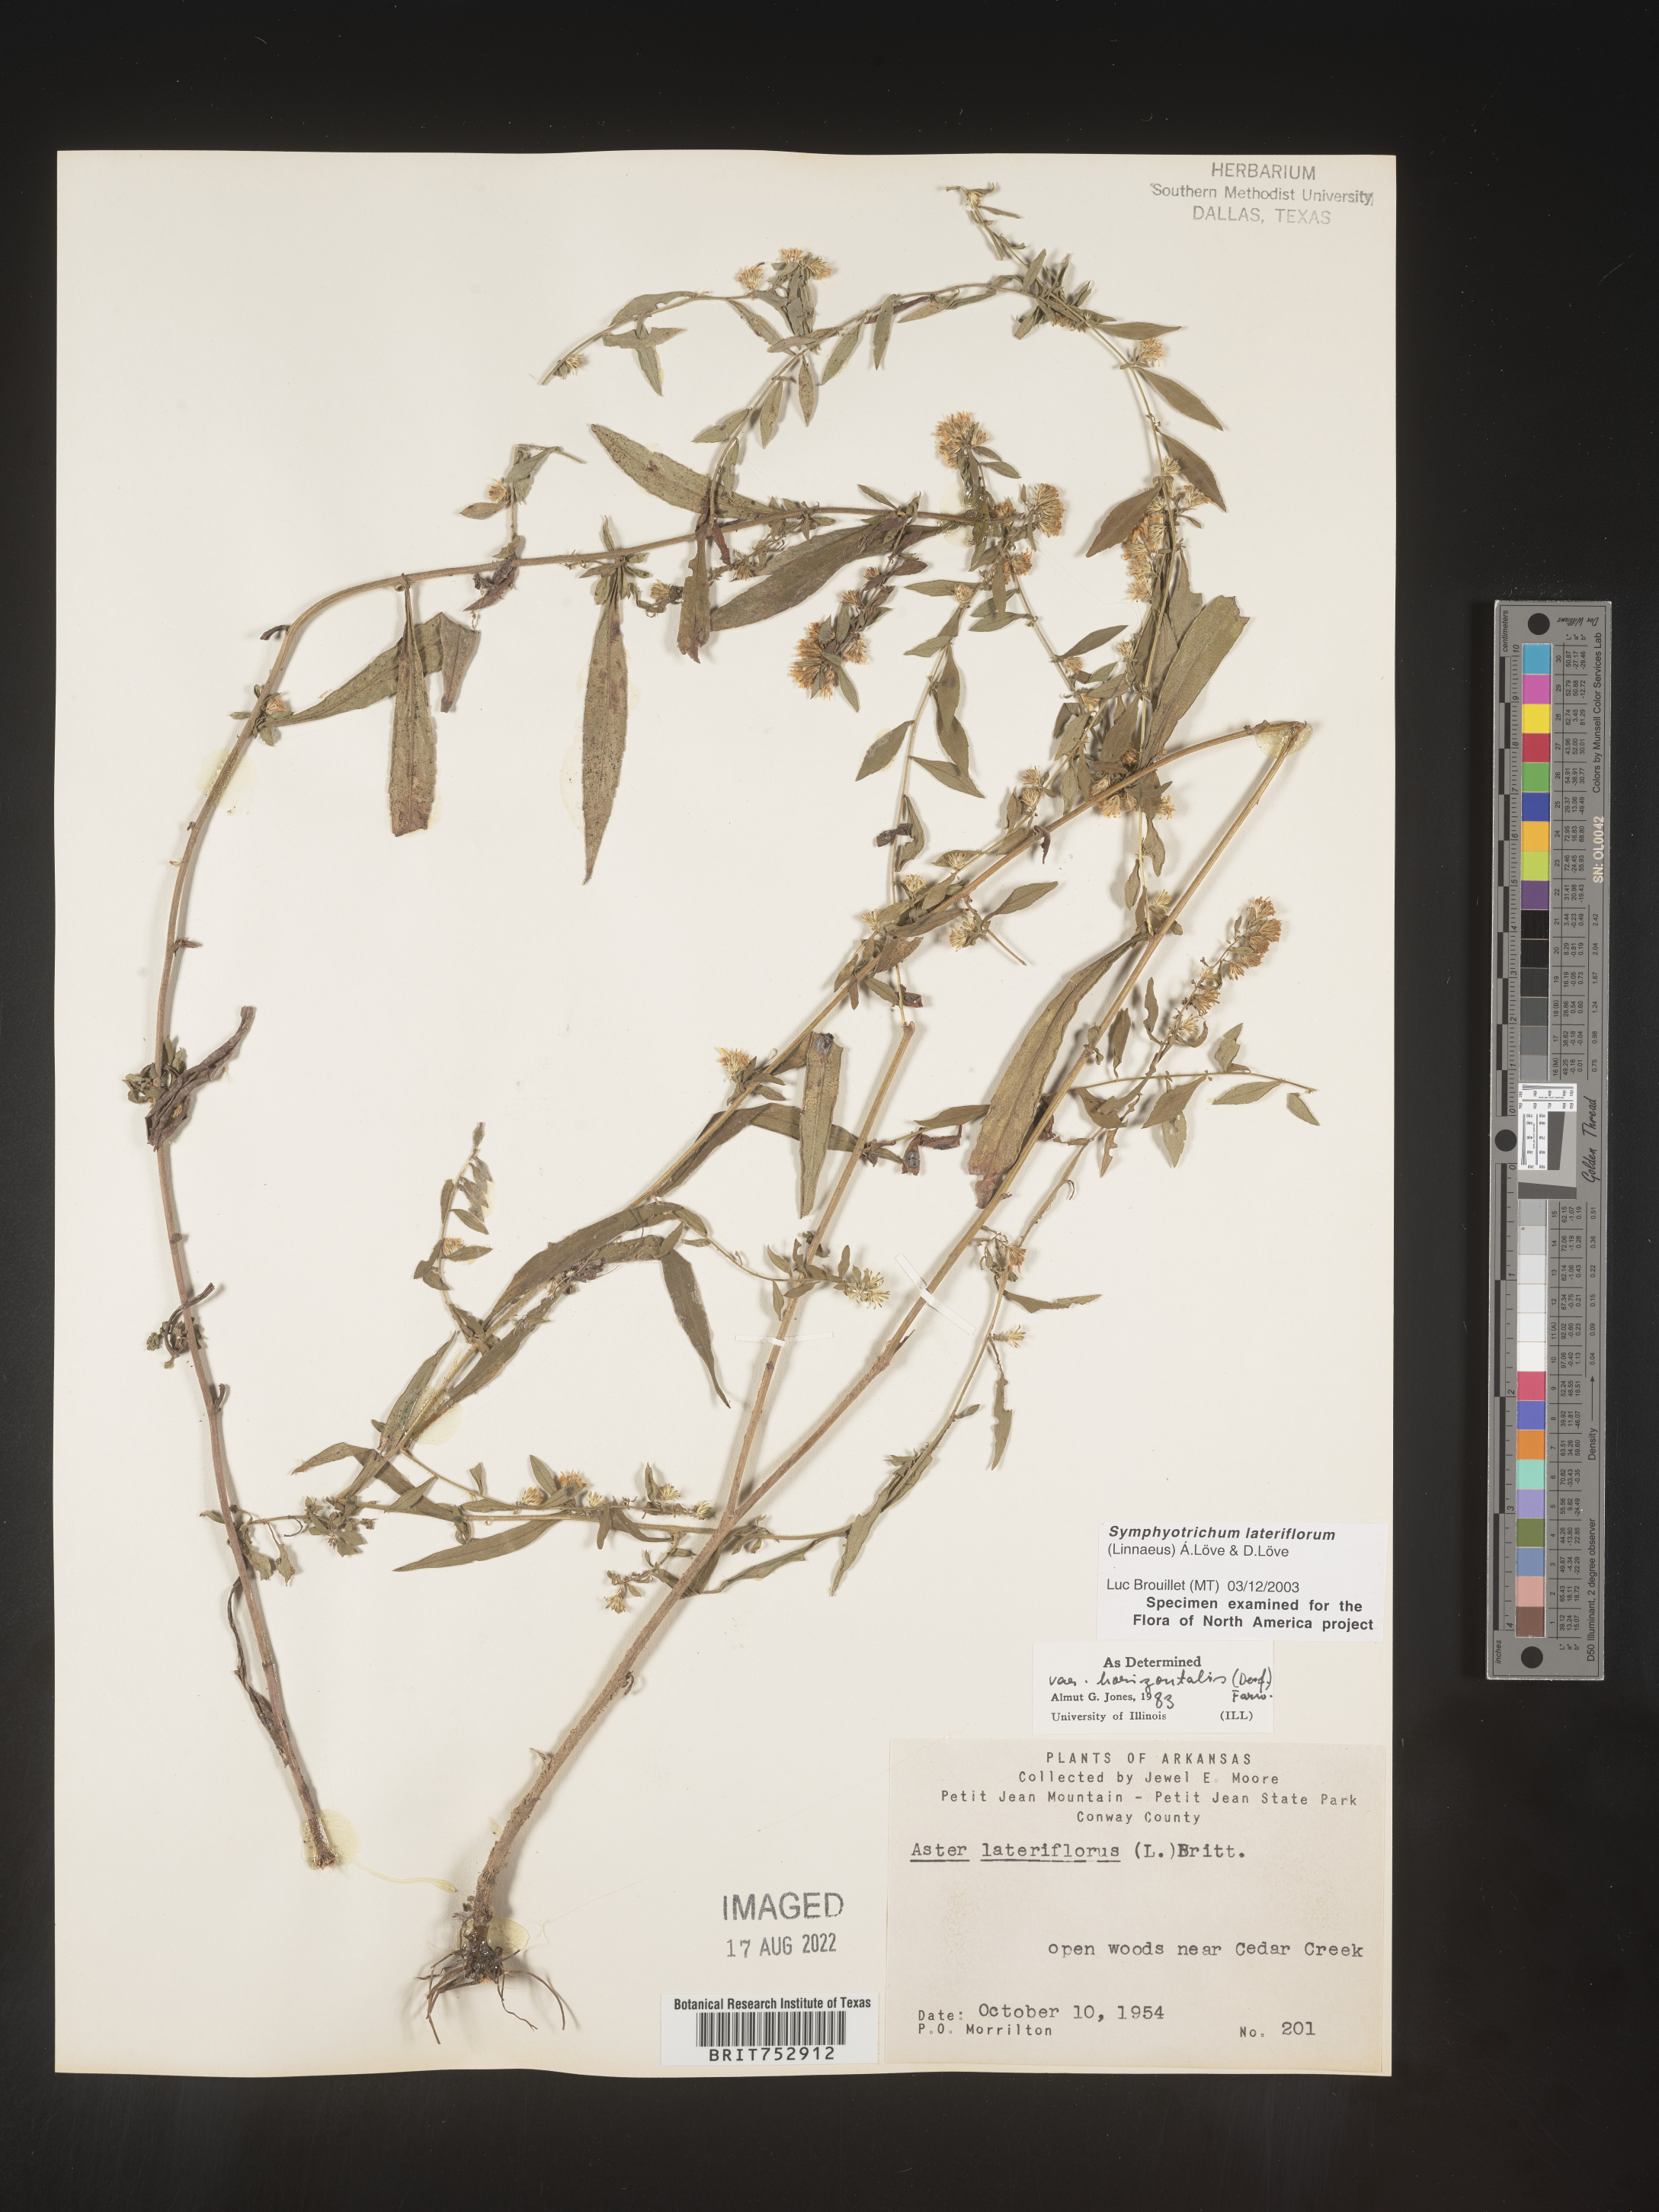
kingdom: Plantae
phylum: Tracheophyta
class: Magnoliopsida
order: Asterales
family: Asteraceae
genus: Symphyotrichum
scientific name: Symphyotrichum lateriflorum
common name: Calico aster
